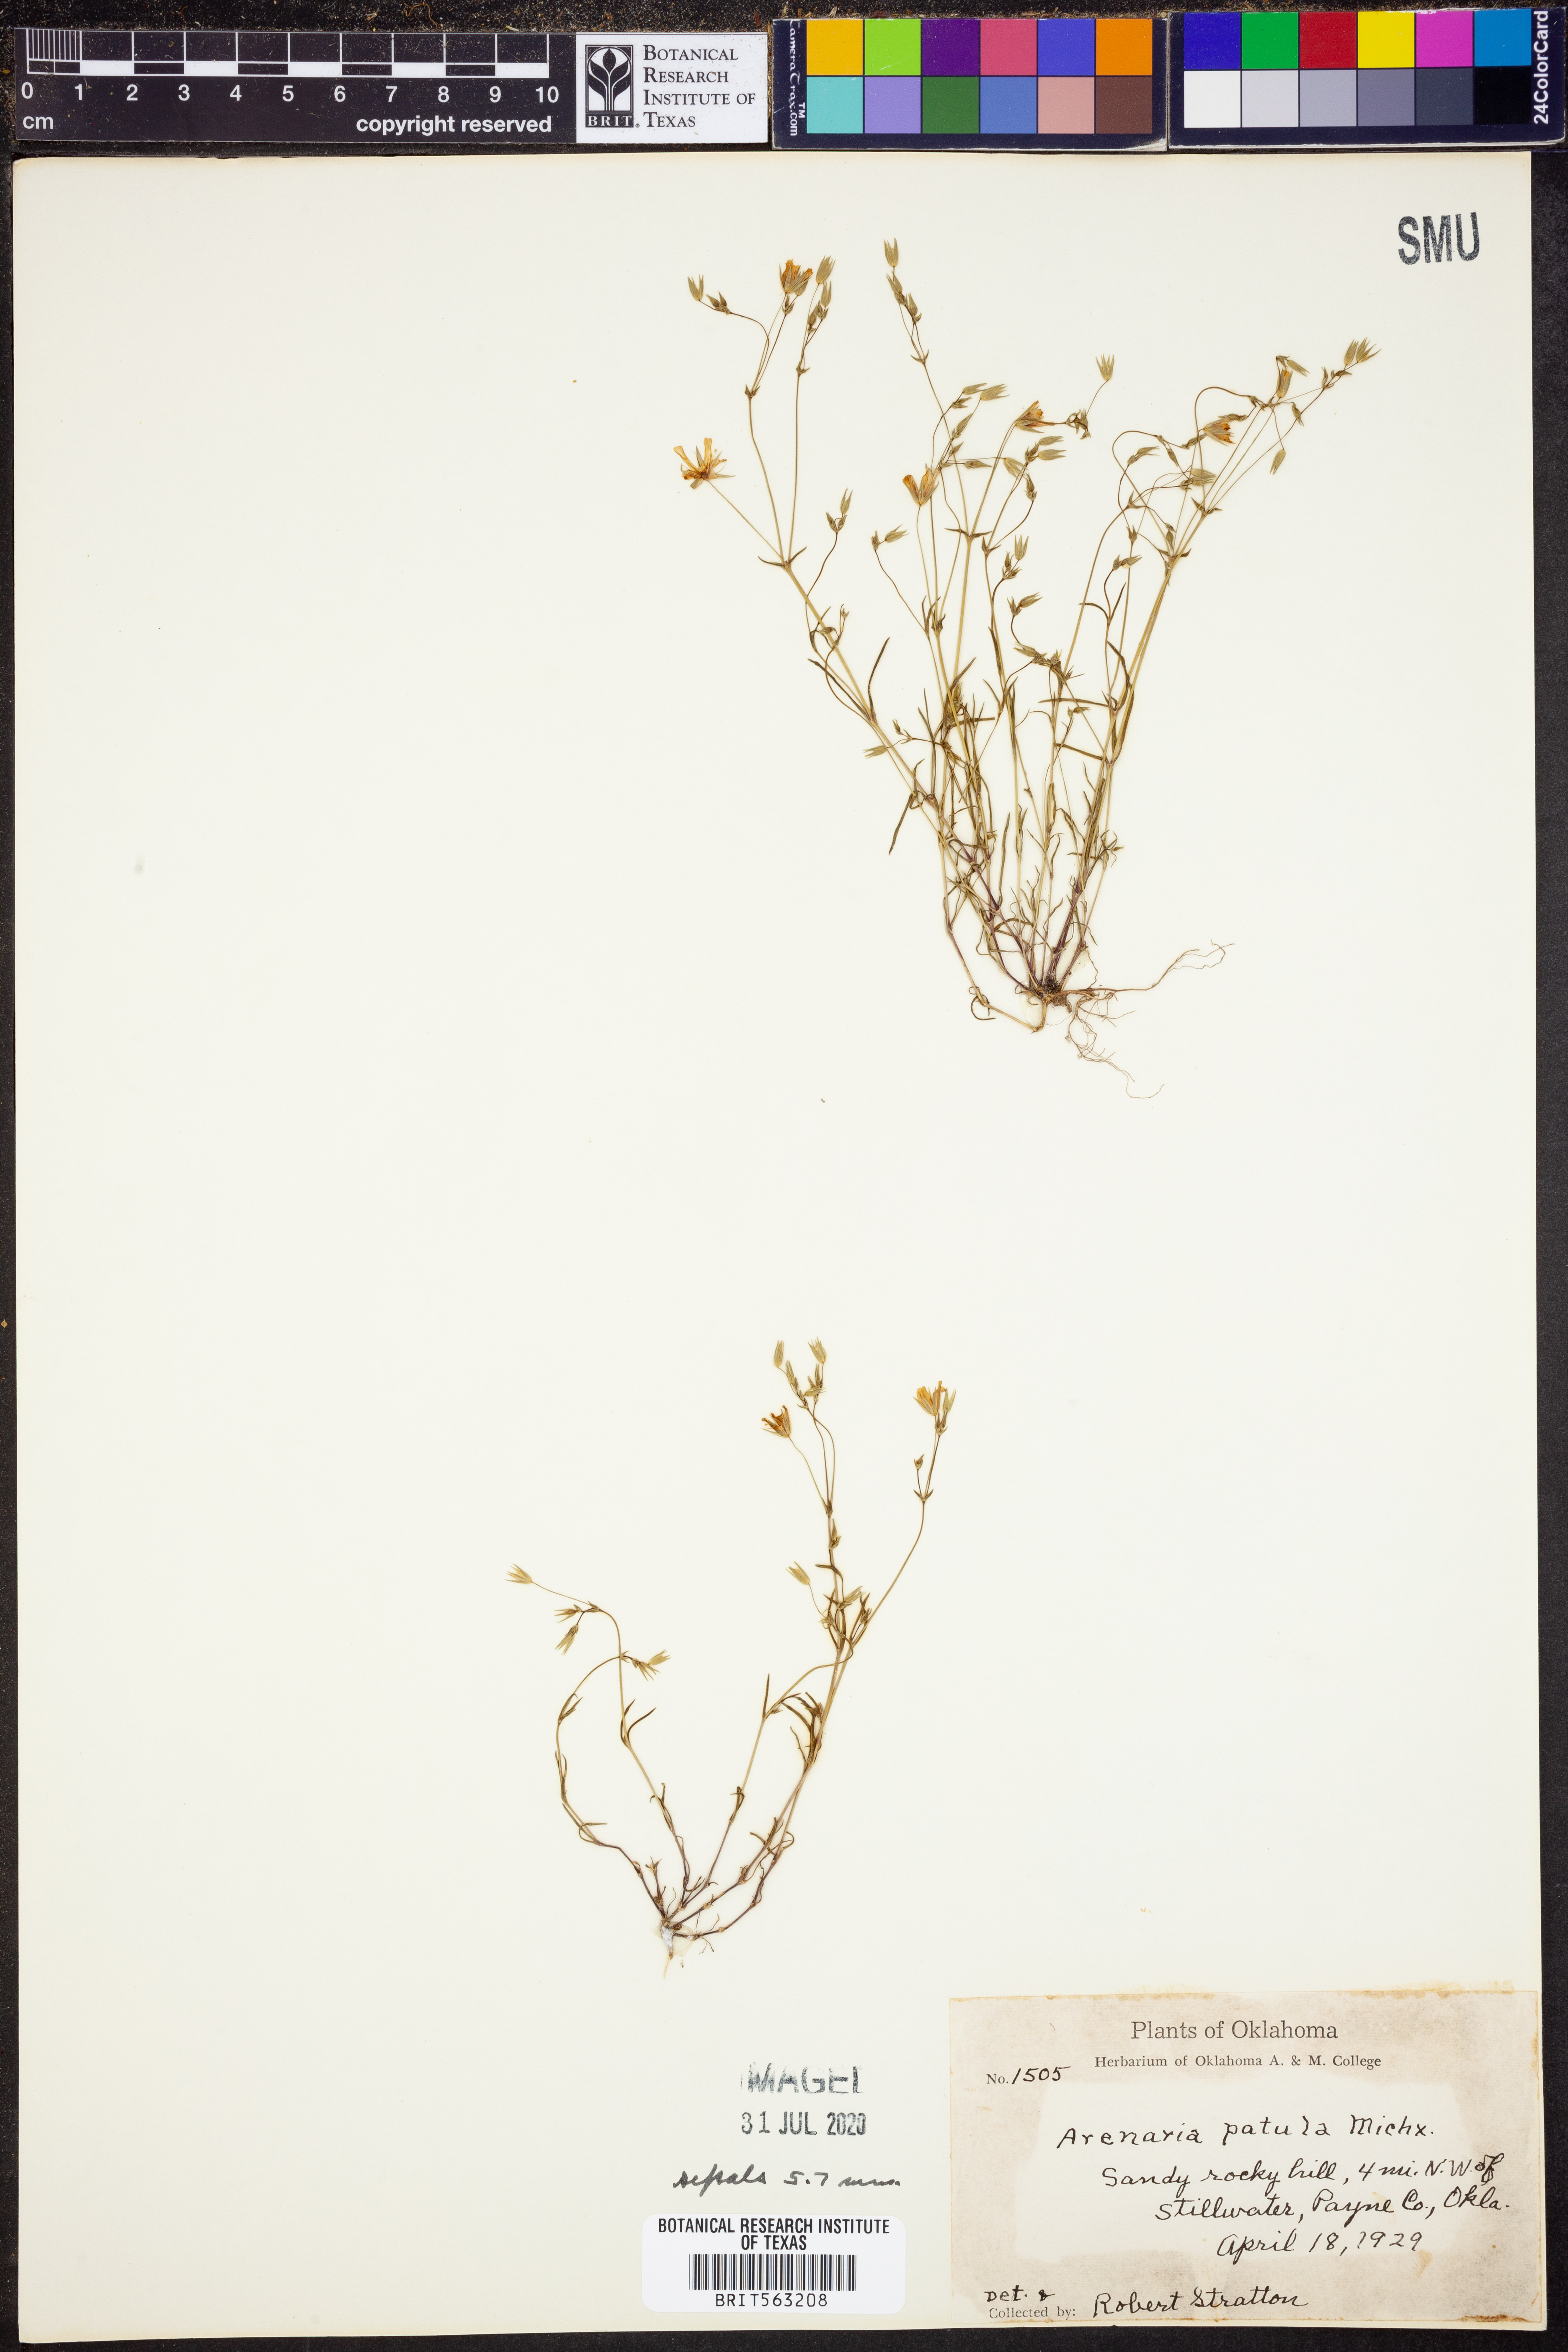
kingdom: Plantae
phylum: Tracheophyta
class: Magnoliopsida
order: Caryophyllales
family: Caryophyllaceae
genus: Mononeuria
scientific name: Mononeuria patula
